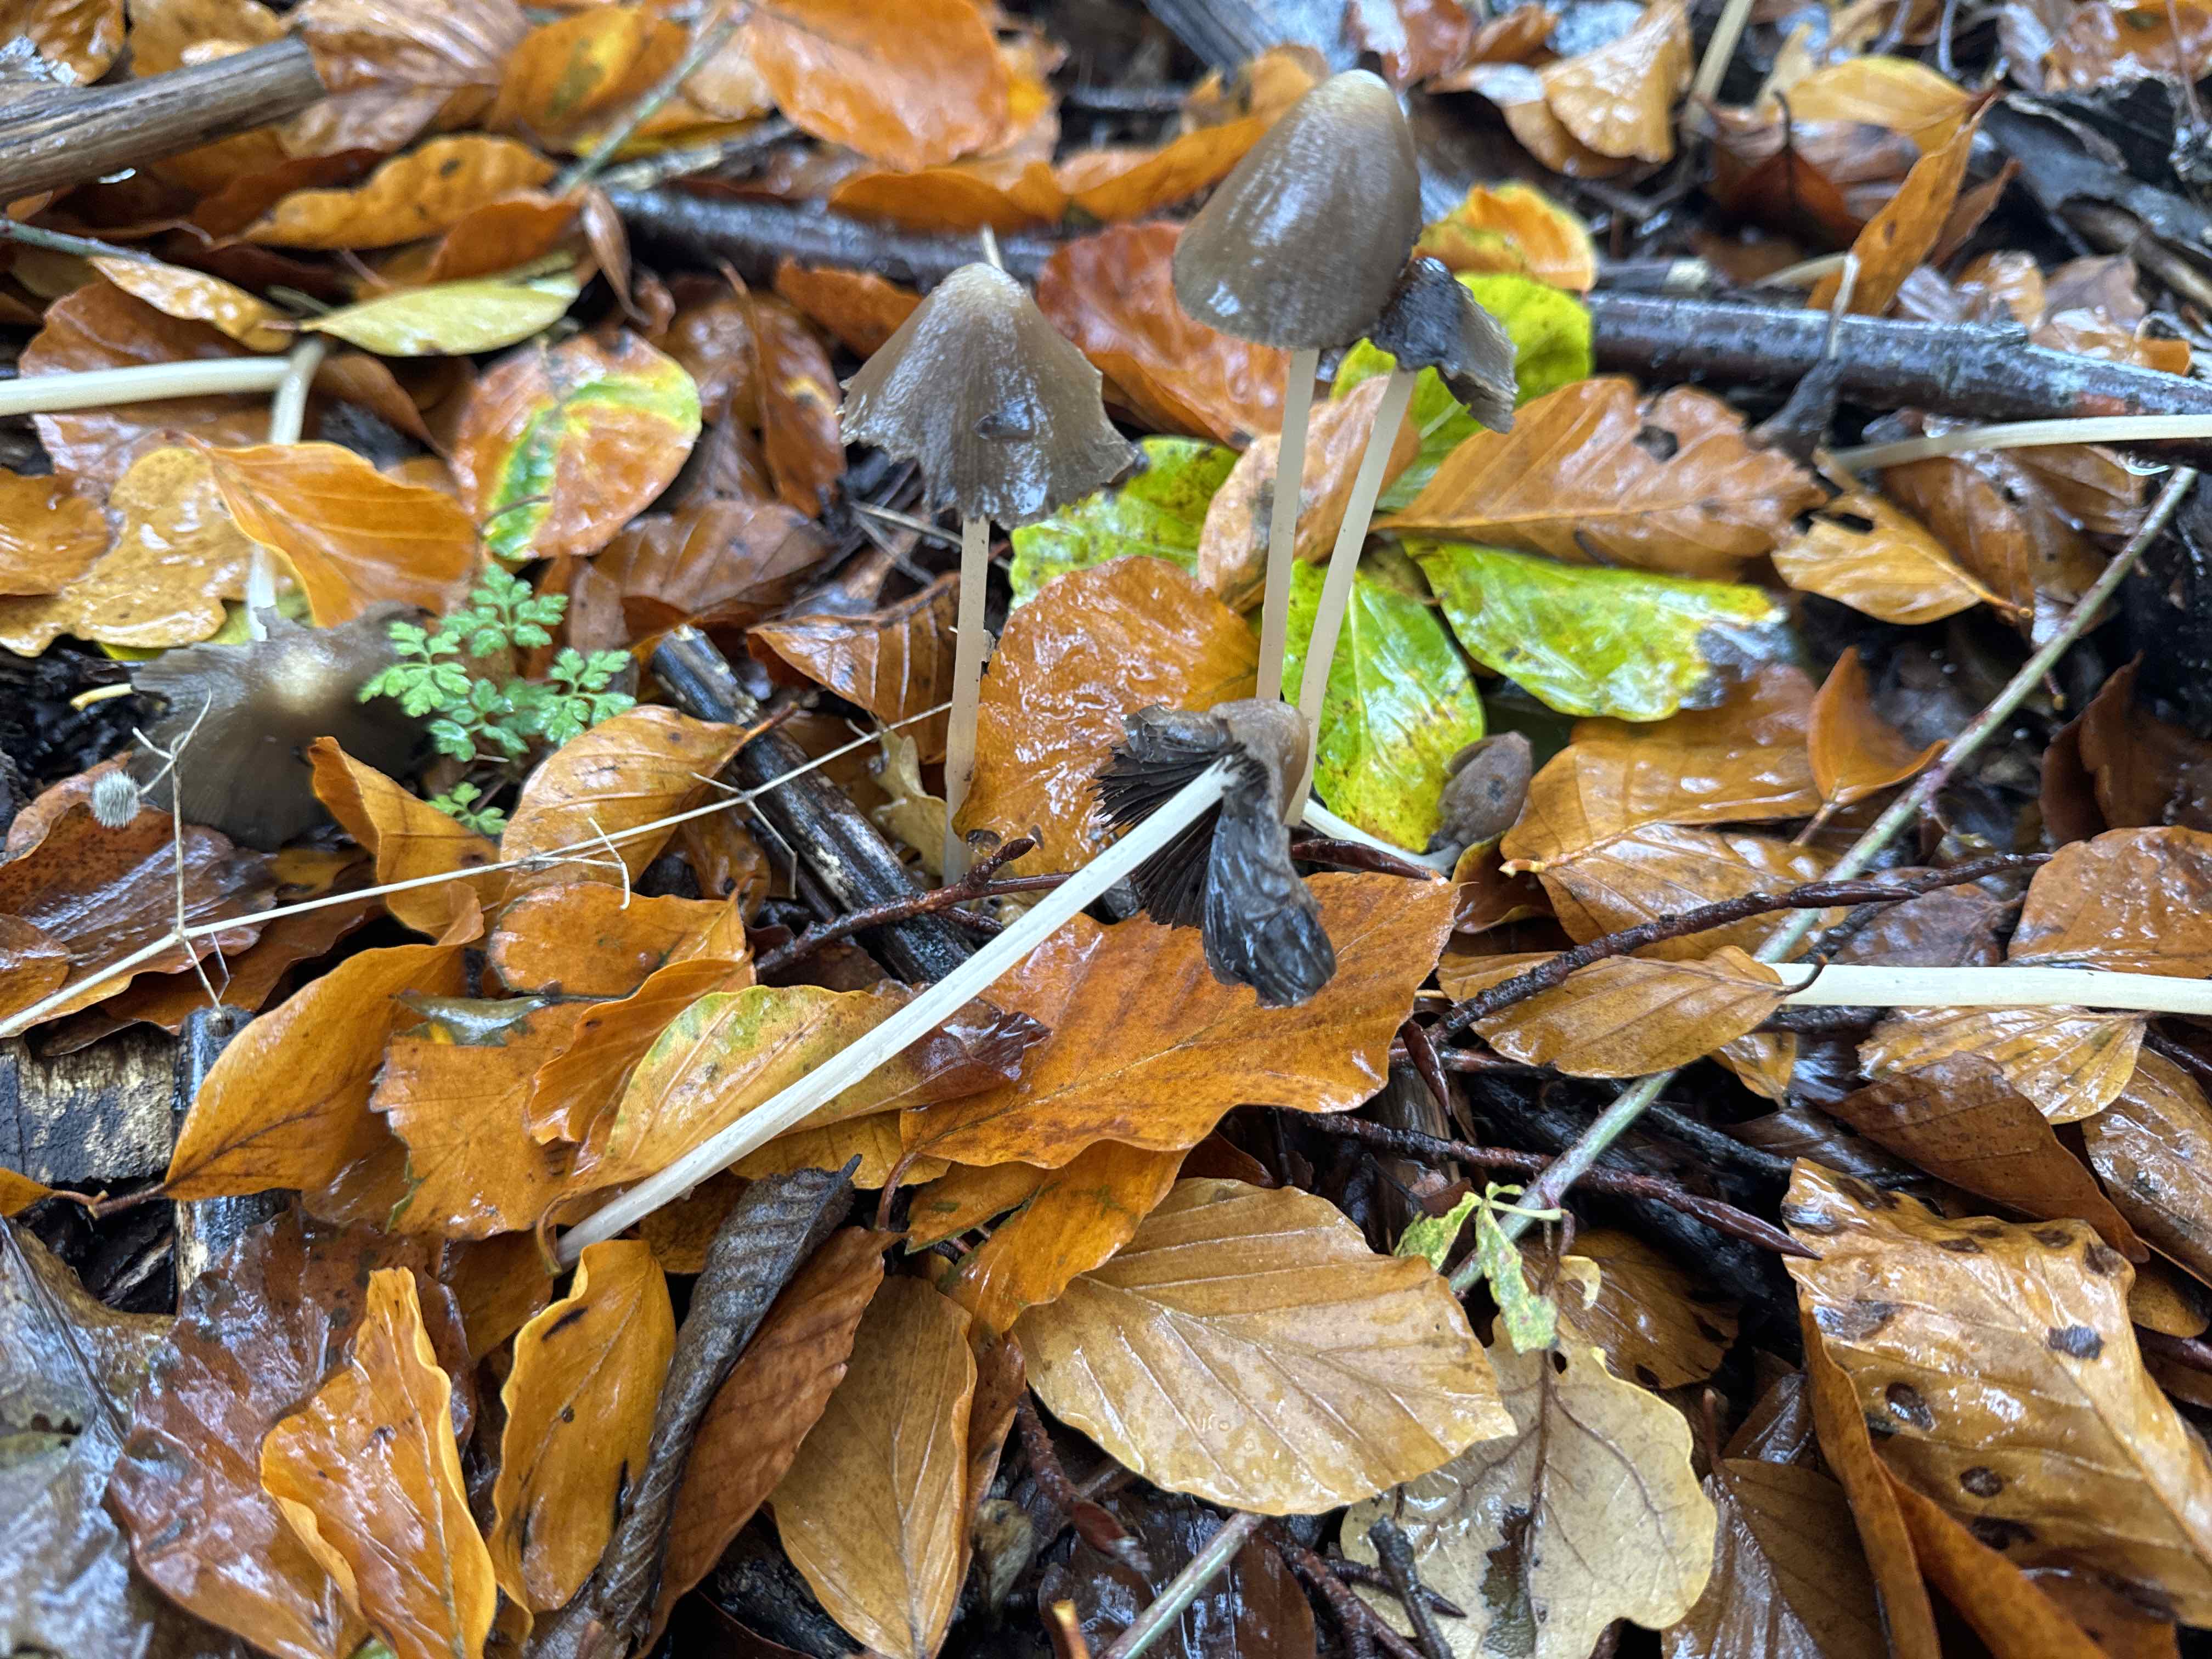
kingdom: Fungi
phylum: Basidiomycota
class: Agaricomycetes
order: Agaricales
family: Psathyrellaceae
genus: Parasola
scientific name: Parasola conopilea
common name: kegle-hjulhat
